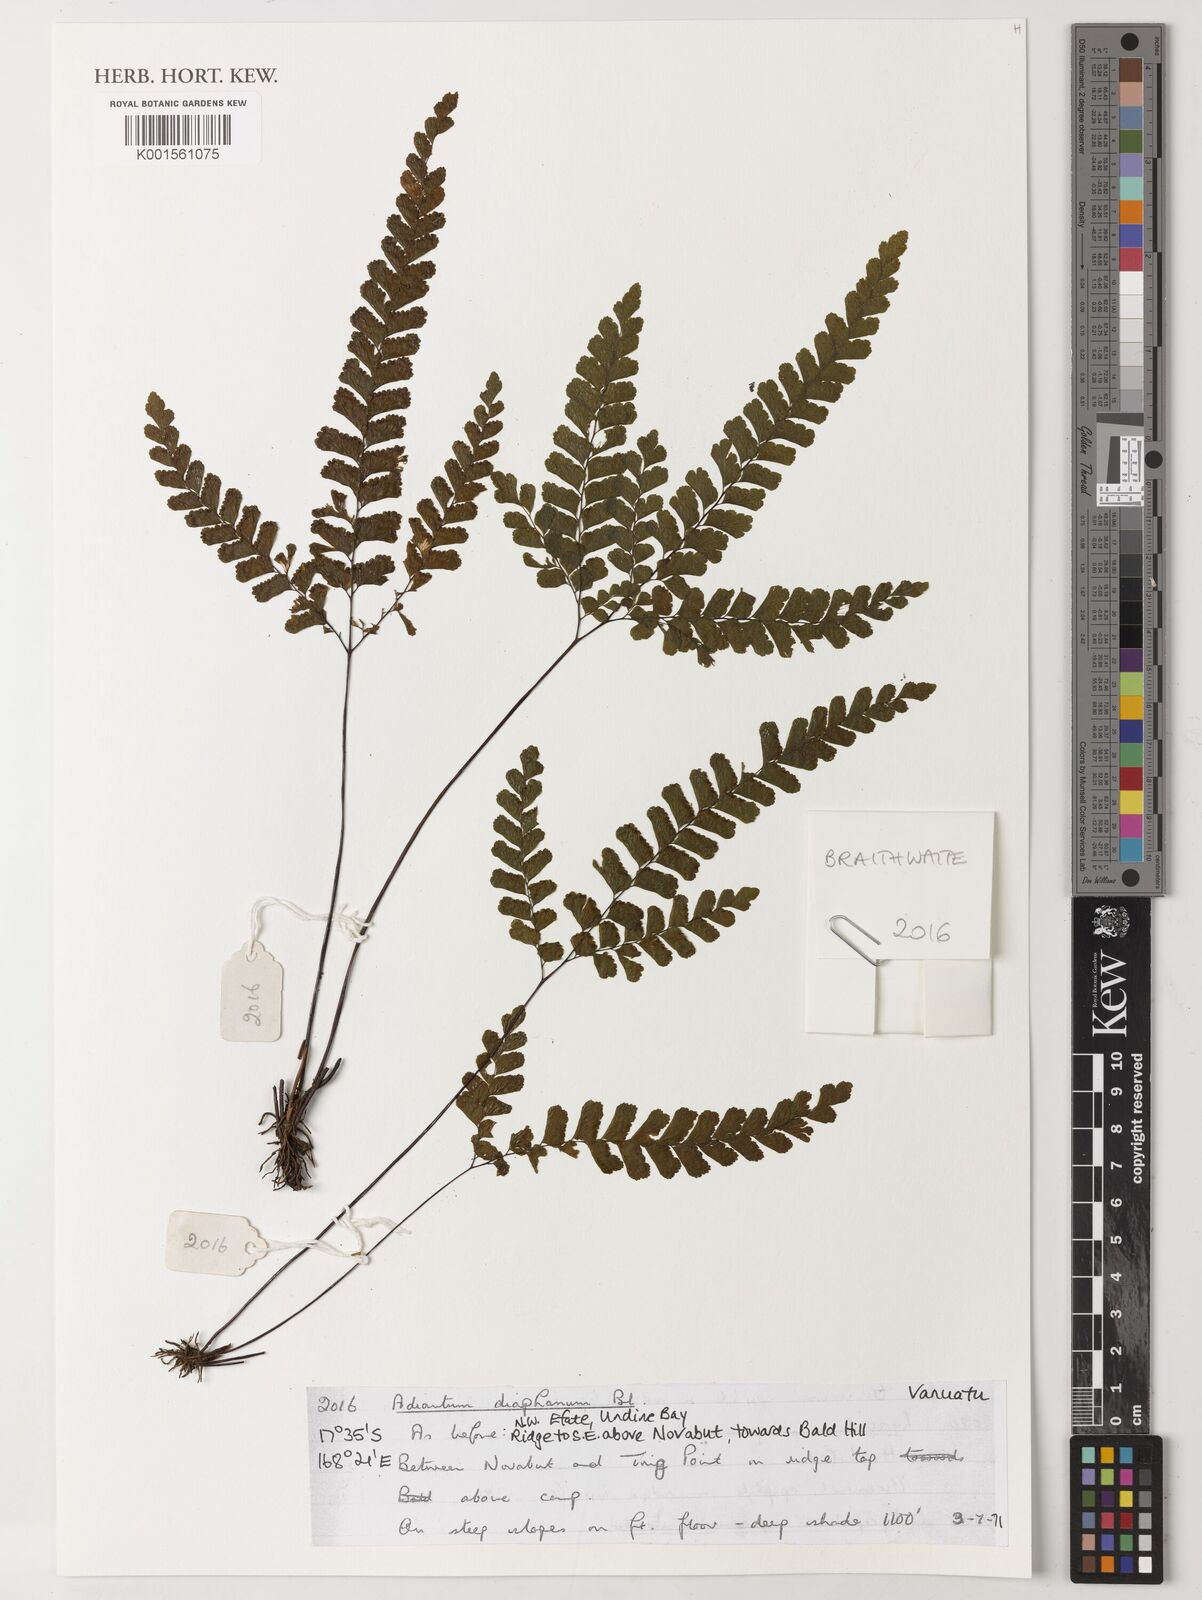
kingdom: Plantae
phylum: Tracheophyta
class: Polypodiopsida
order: Polypodiales
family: Pteridaceae
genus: Adiantum
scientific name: Adiantum diaphanum
